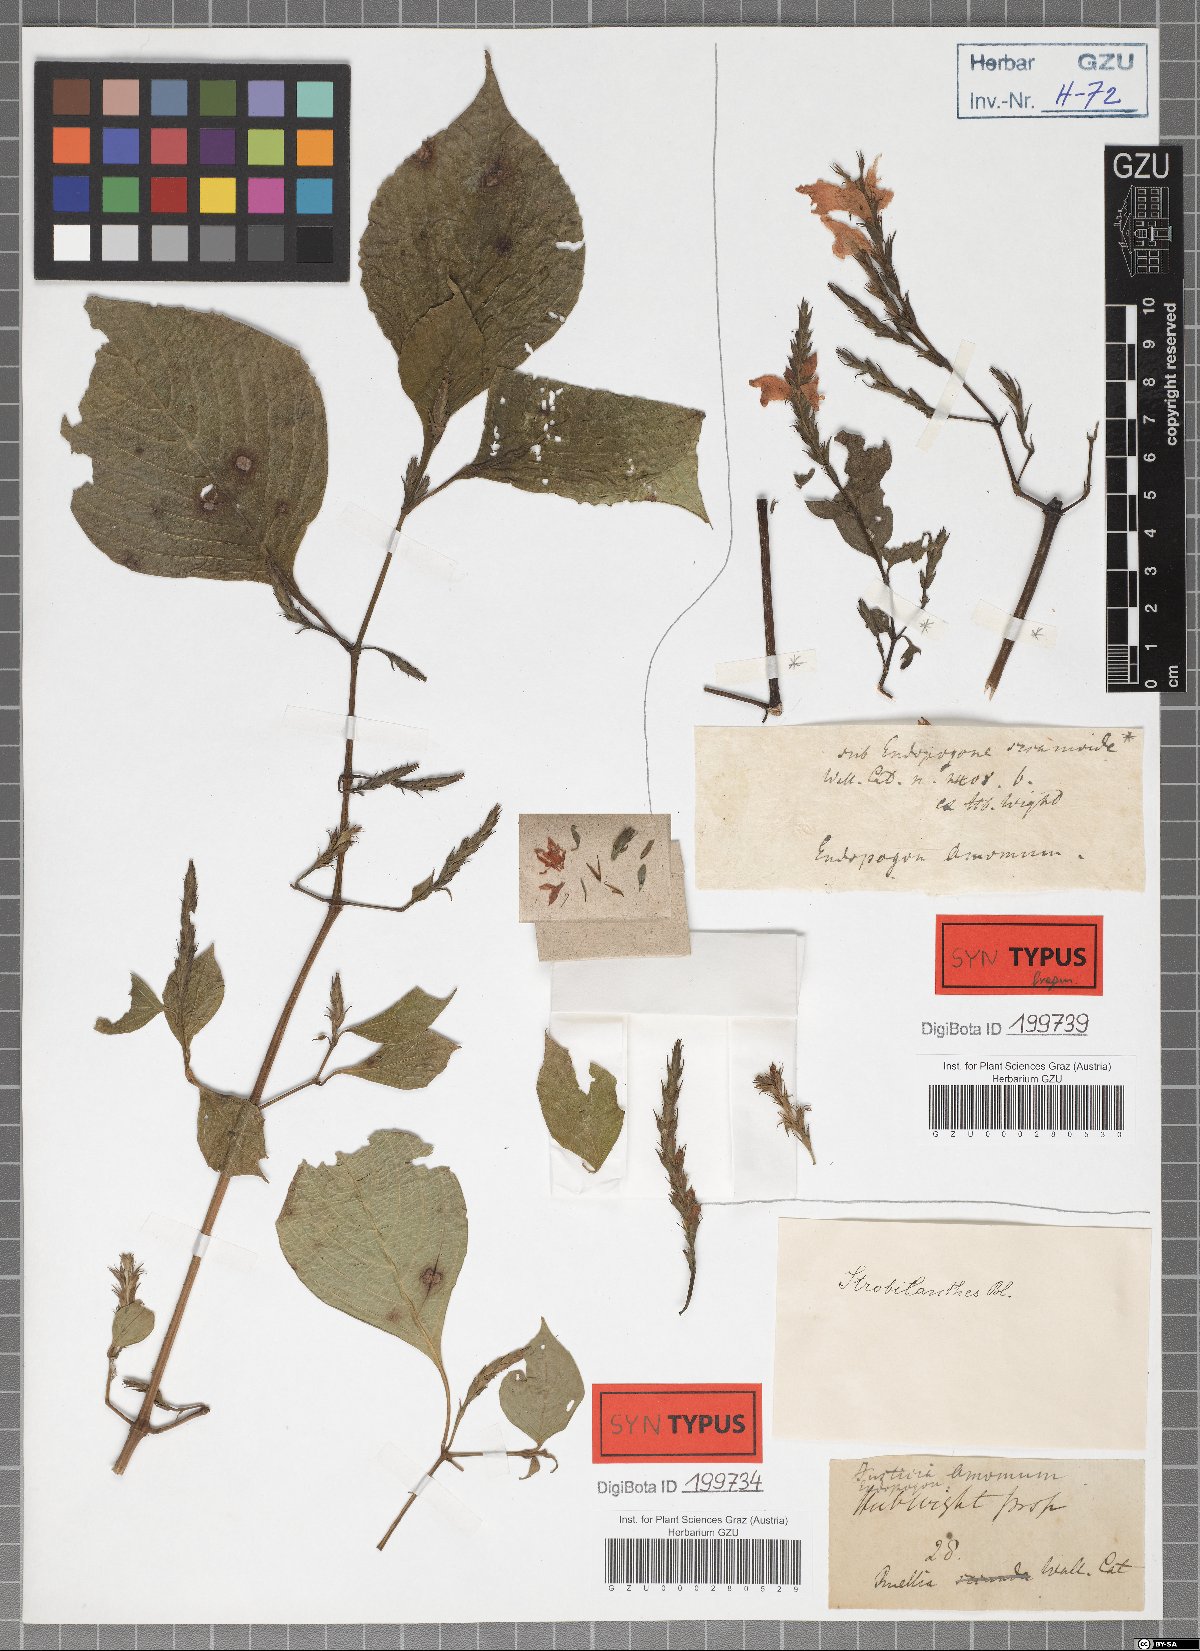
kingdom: Plantae
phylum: Tracheophyta
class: Magnoliopsida
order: Lamiales
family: Acanthaceae
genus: Strobilanthes
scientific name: Strobilanthes consanguinea
